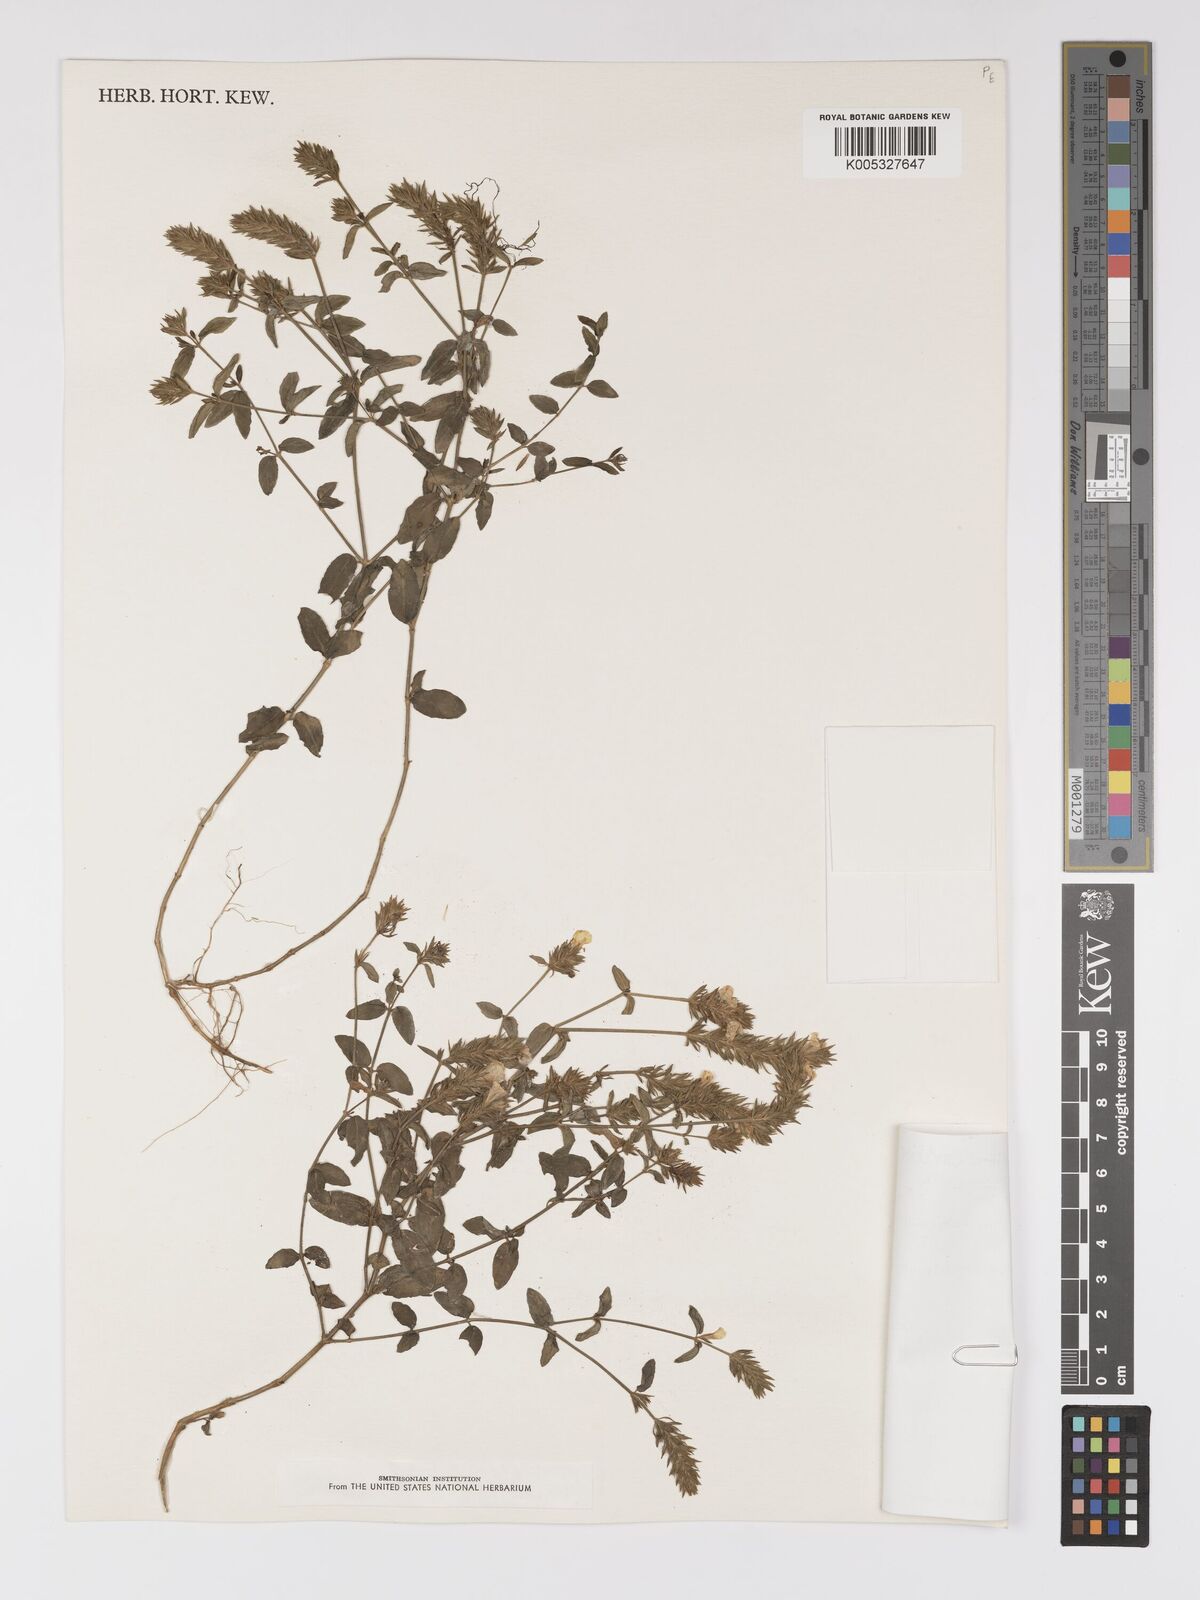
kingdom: Plantae
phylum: Tracheophyta
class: Magnoliopsida
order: Lamiales
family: Acanthaceae
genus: Rostellularia
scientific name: Rostellularia latispica
